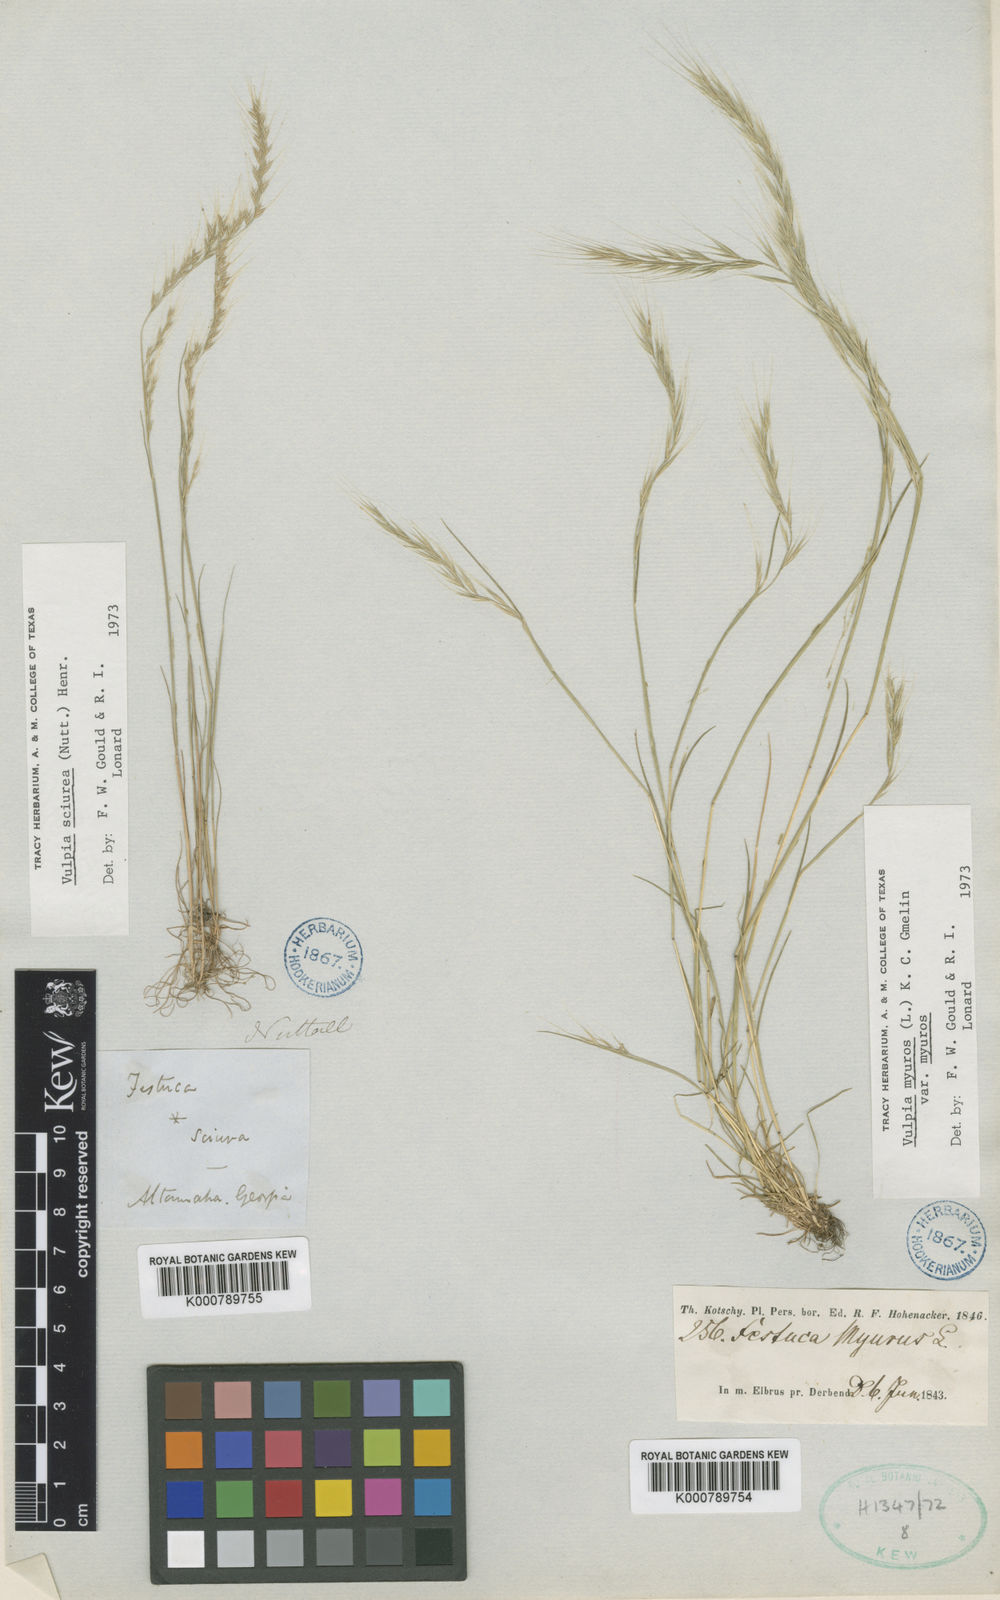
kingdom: Plantae
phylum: Tracheophyta
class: Liliopsida
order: Poales
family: Poaceae
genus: Festuca
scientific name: Festuca sciurea
